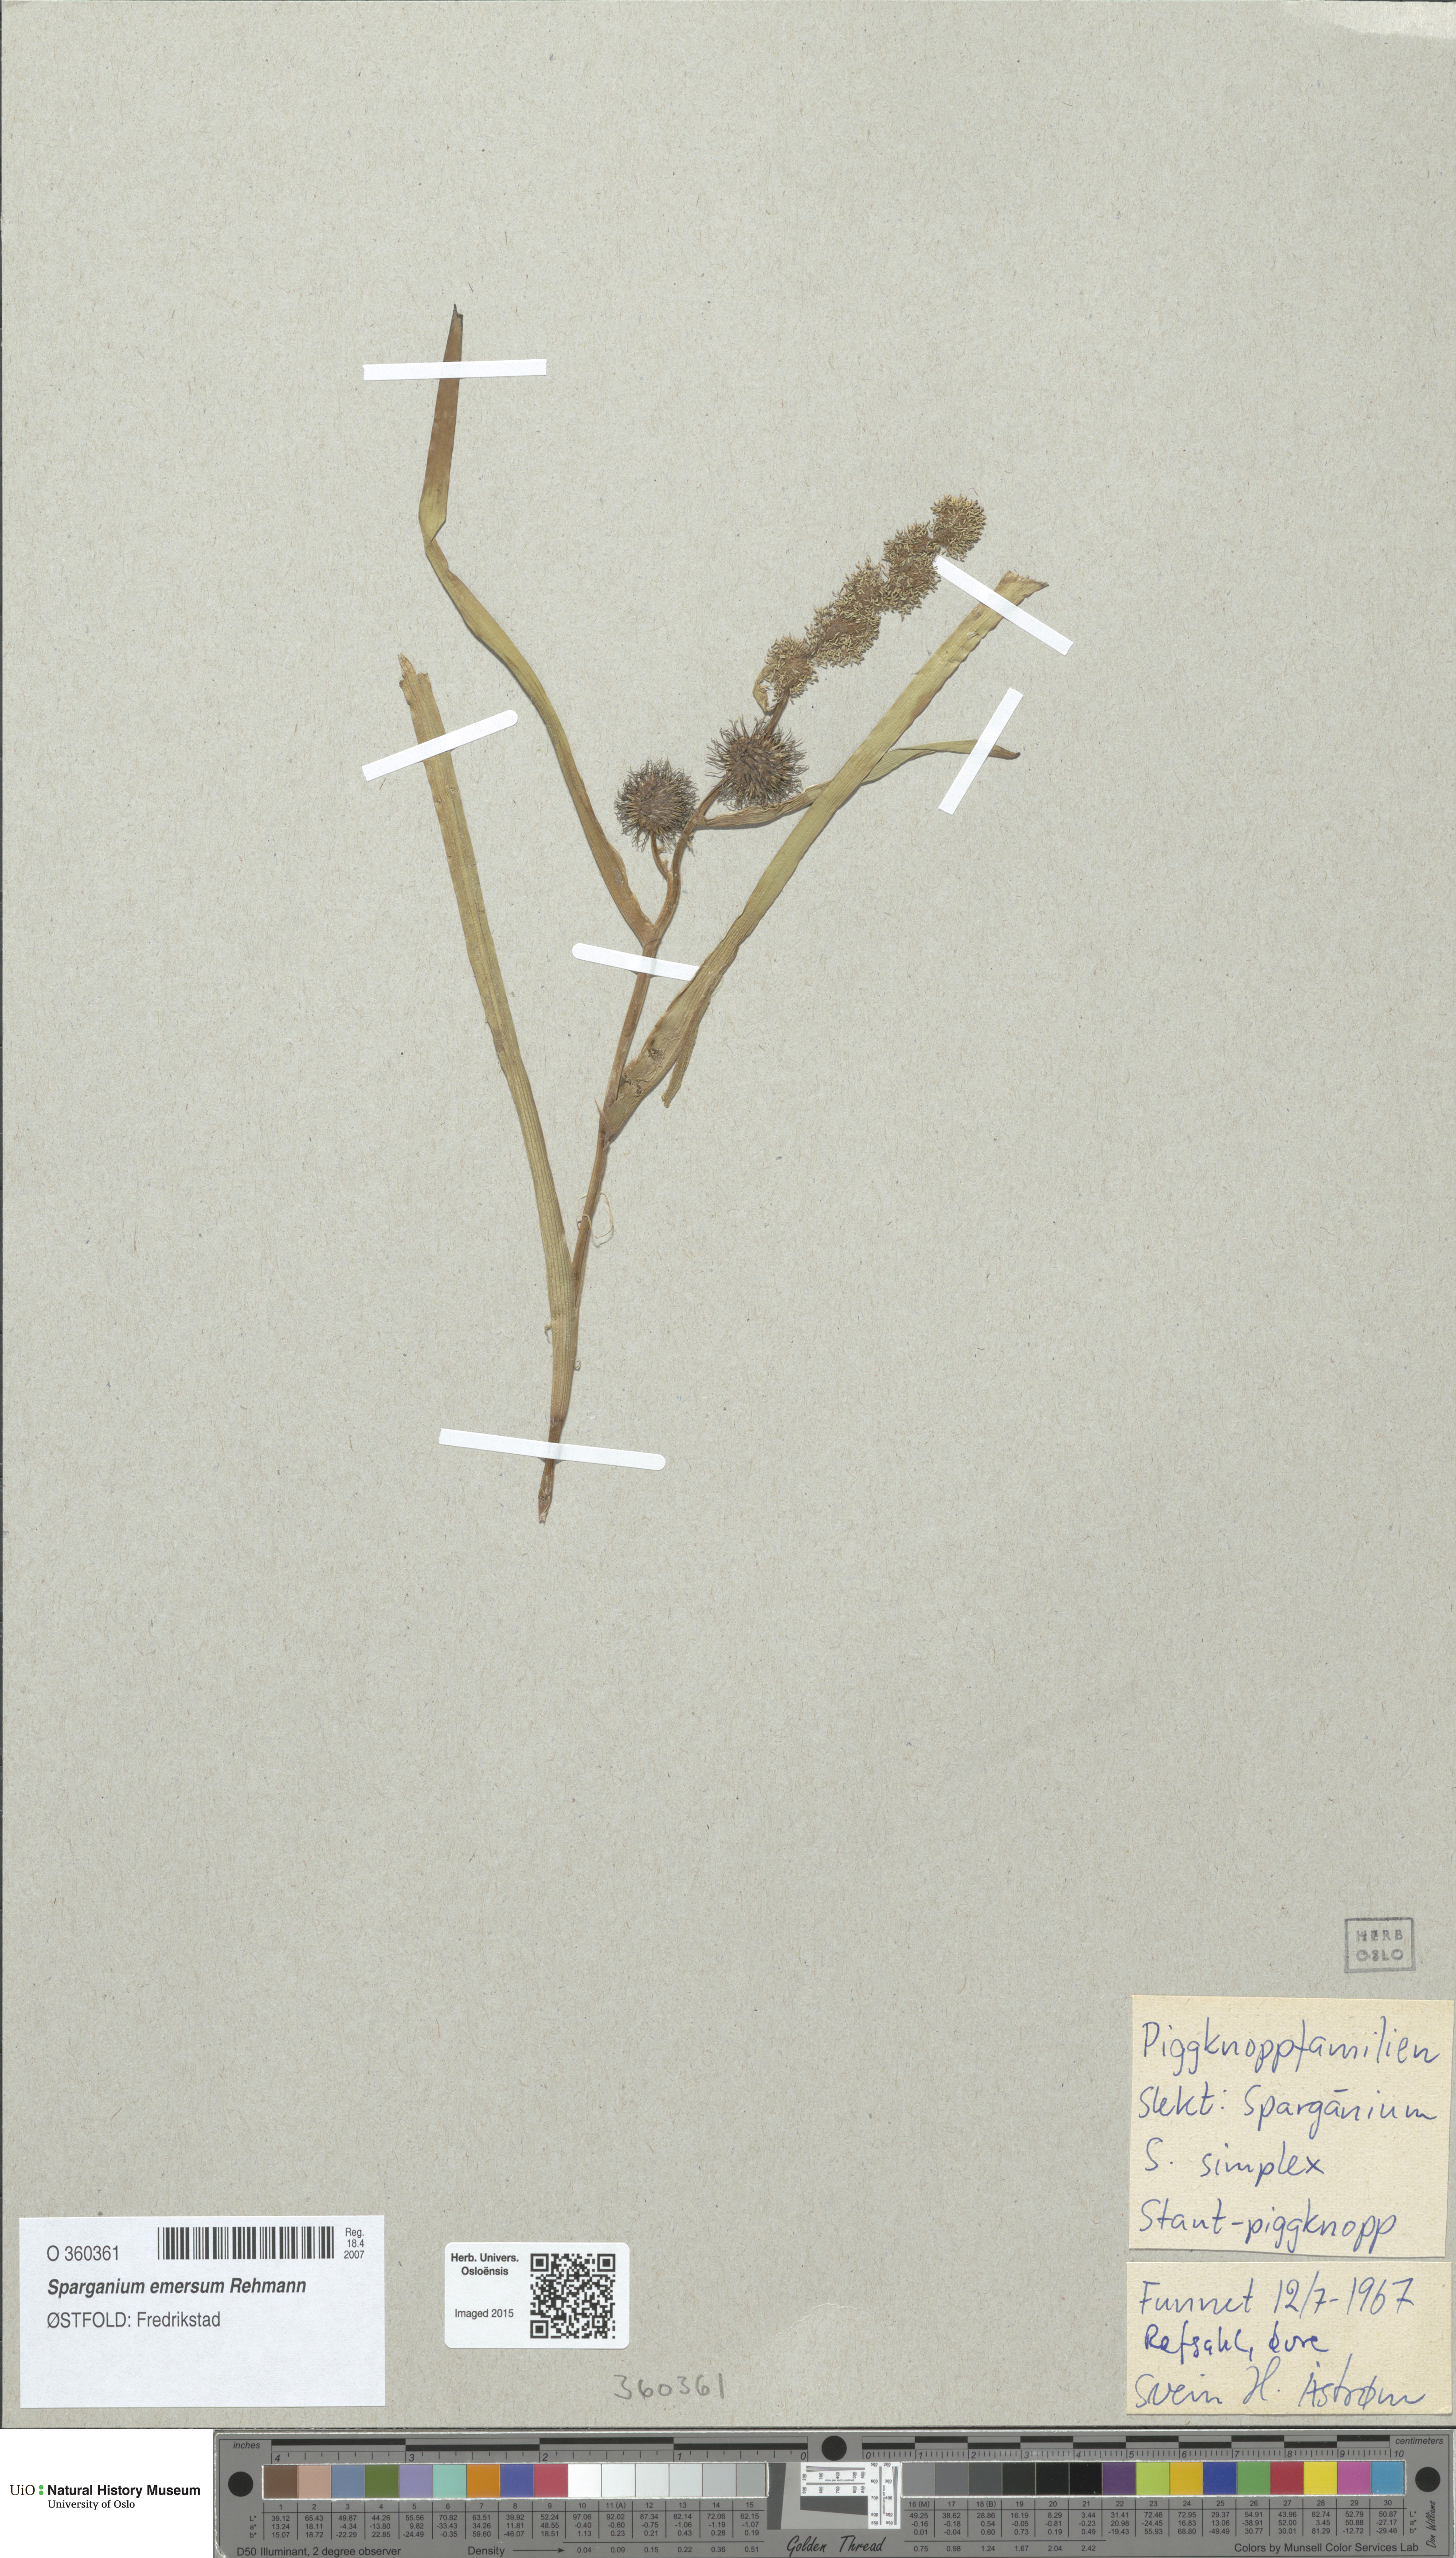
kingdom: Plantae
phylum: Tracheophyta
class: Liliopsida
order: Poales
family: Typhaceae
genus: Sparganium
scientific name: Sparganium emersum
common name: Unbranched bur-reed
